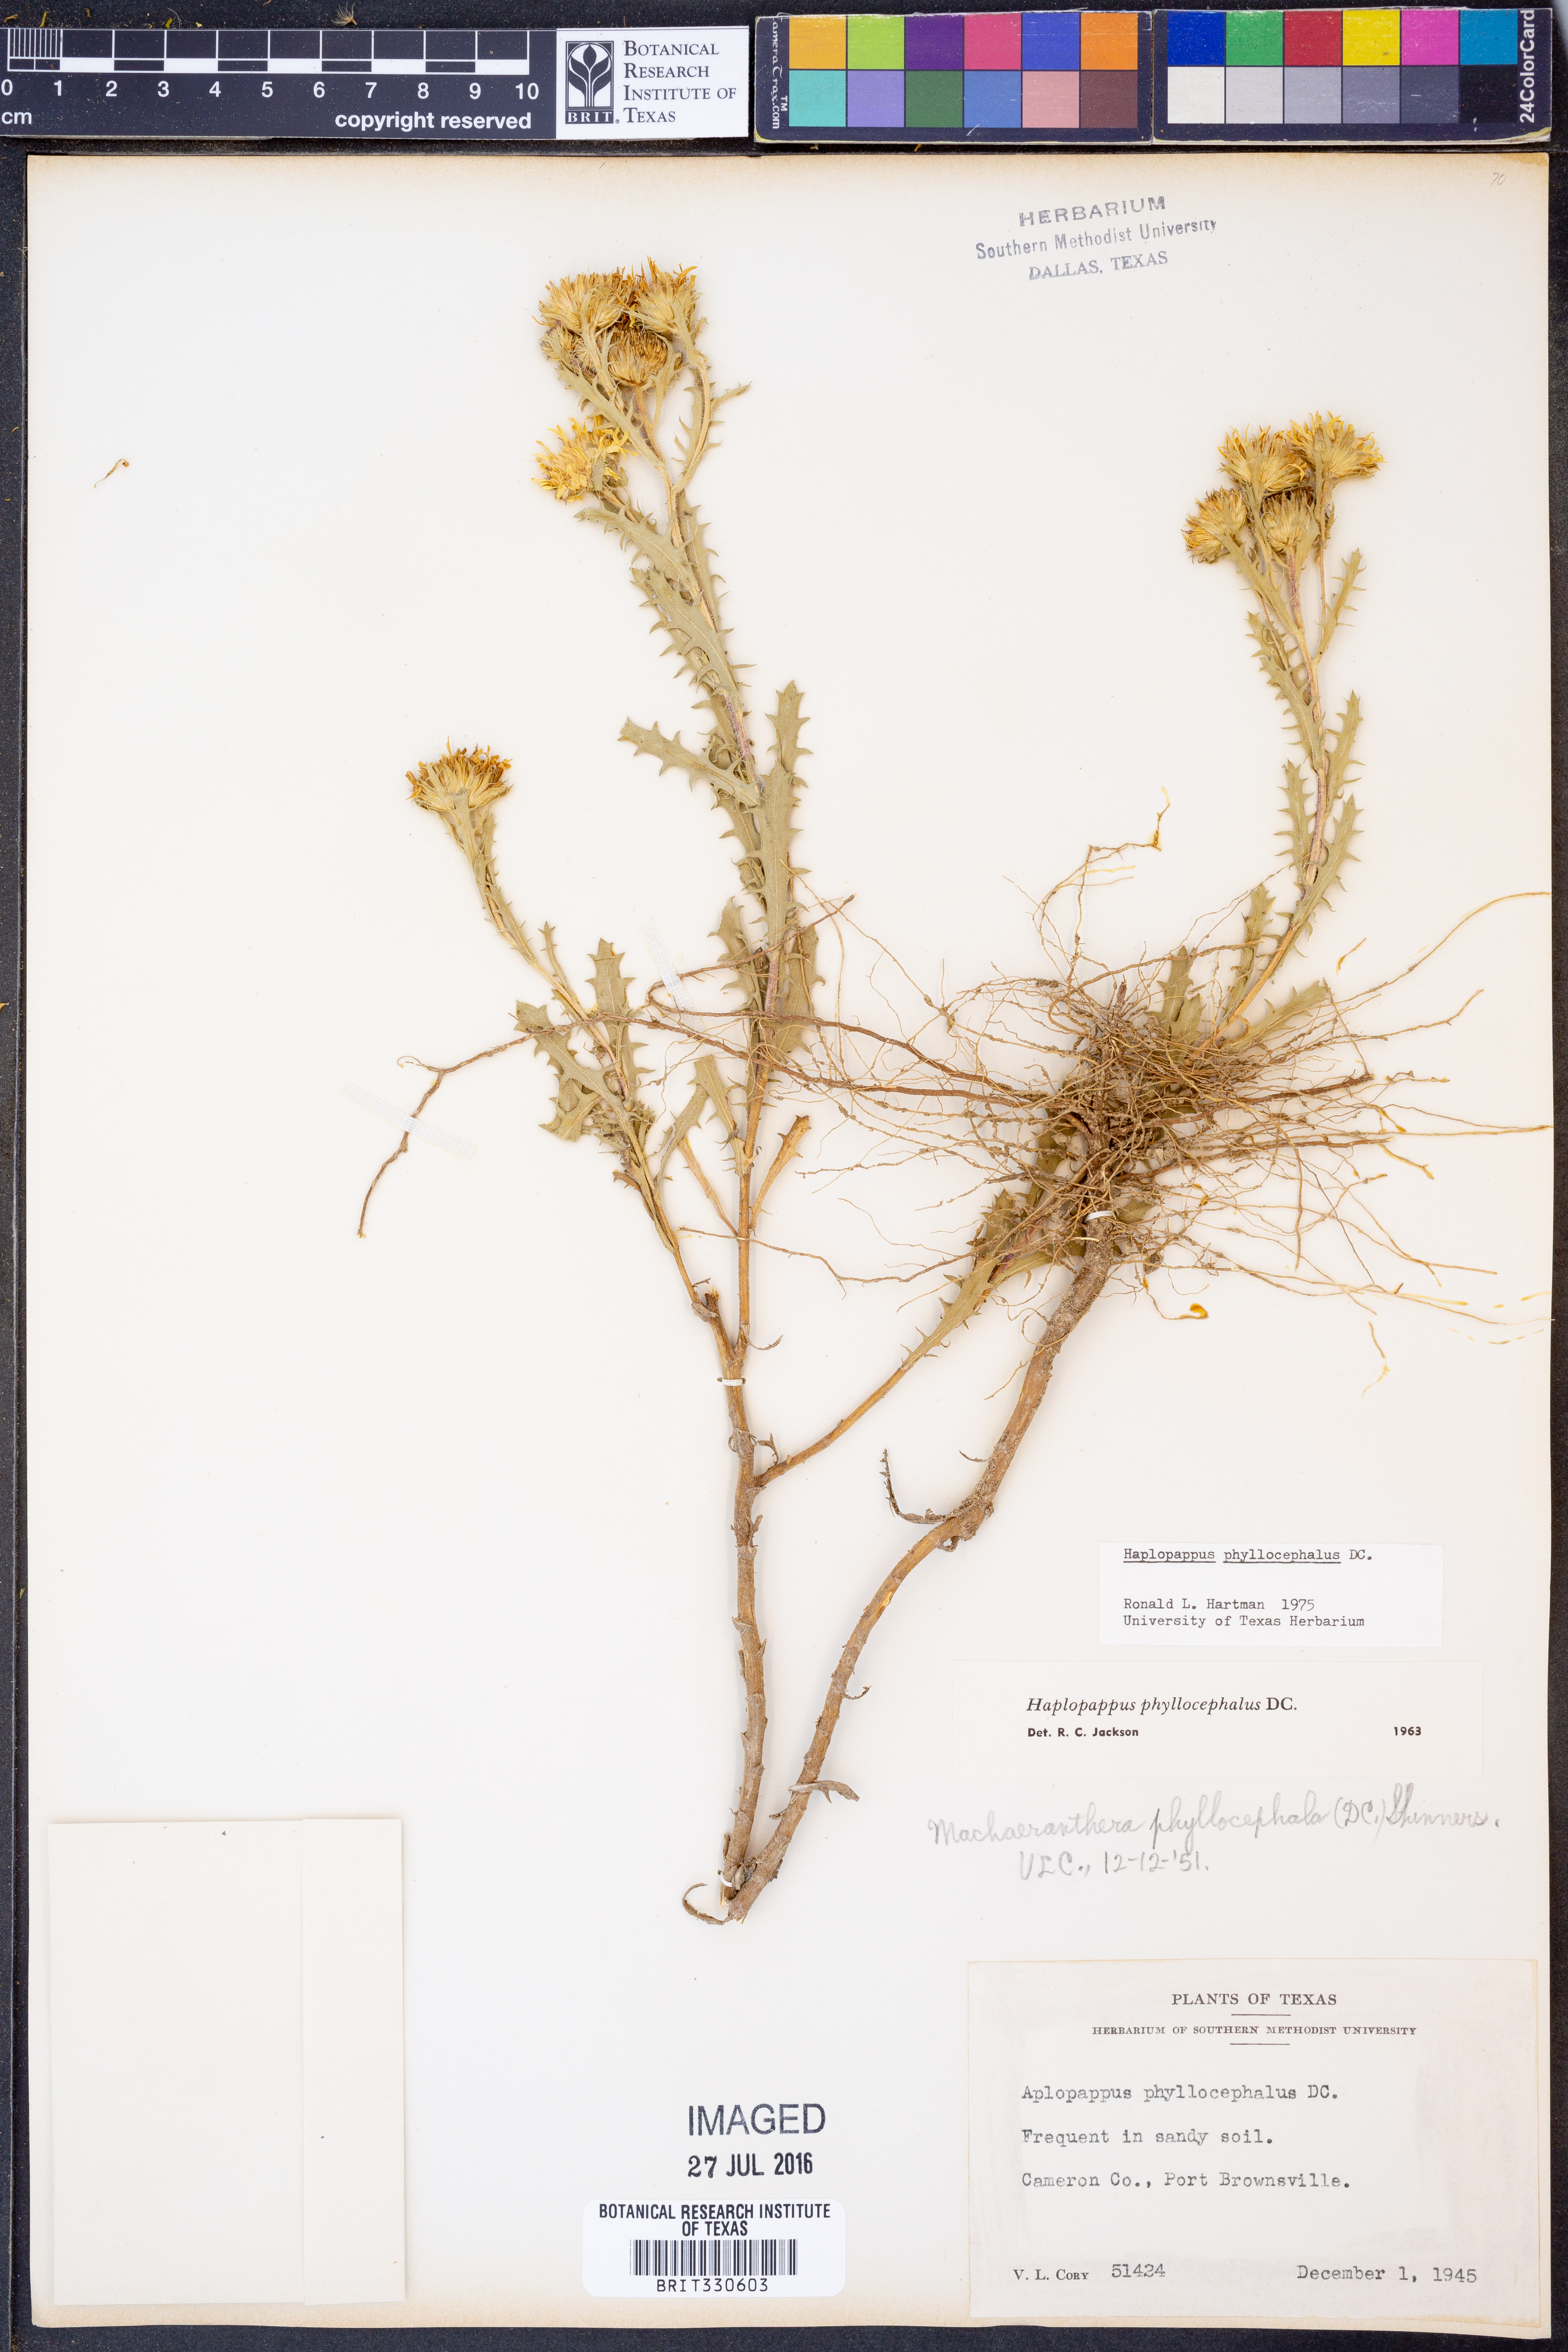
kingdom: Plantae
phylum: Tracheophyta
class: Magnoliopsida
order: Asterales
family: Asteraceae
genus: Rayjacksonia
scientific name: Rayjacksonia phyllocephala
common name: Gulf coast camphor daisy
